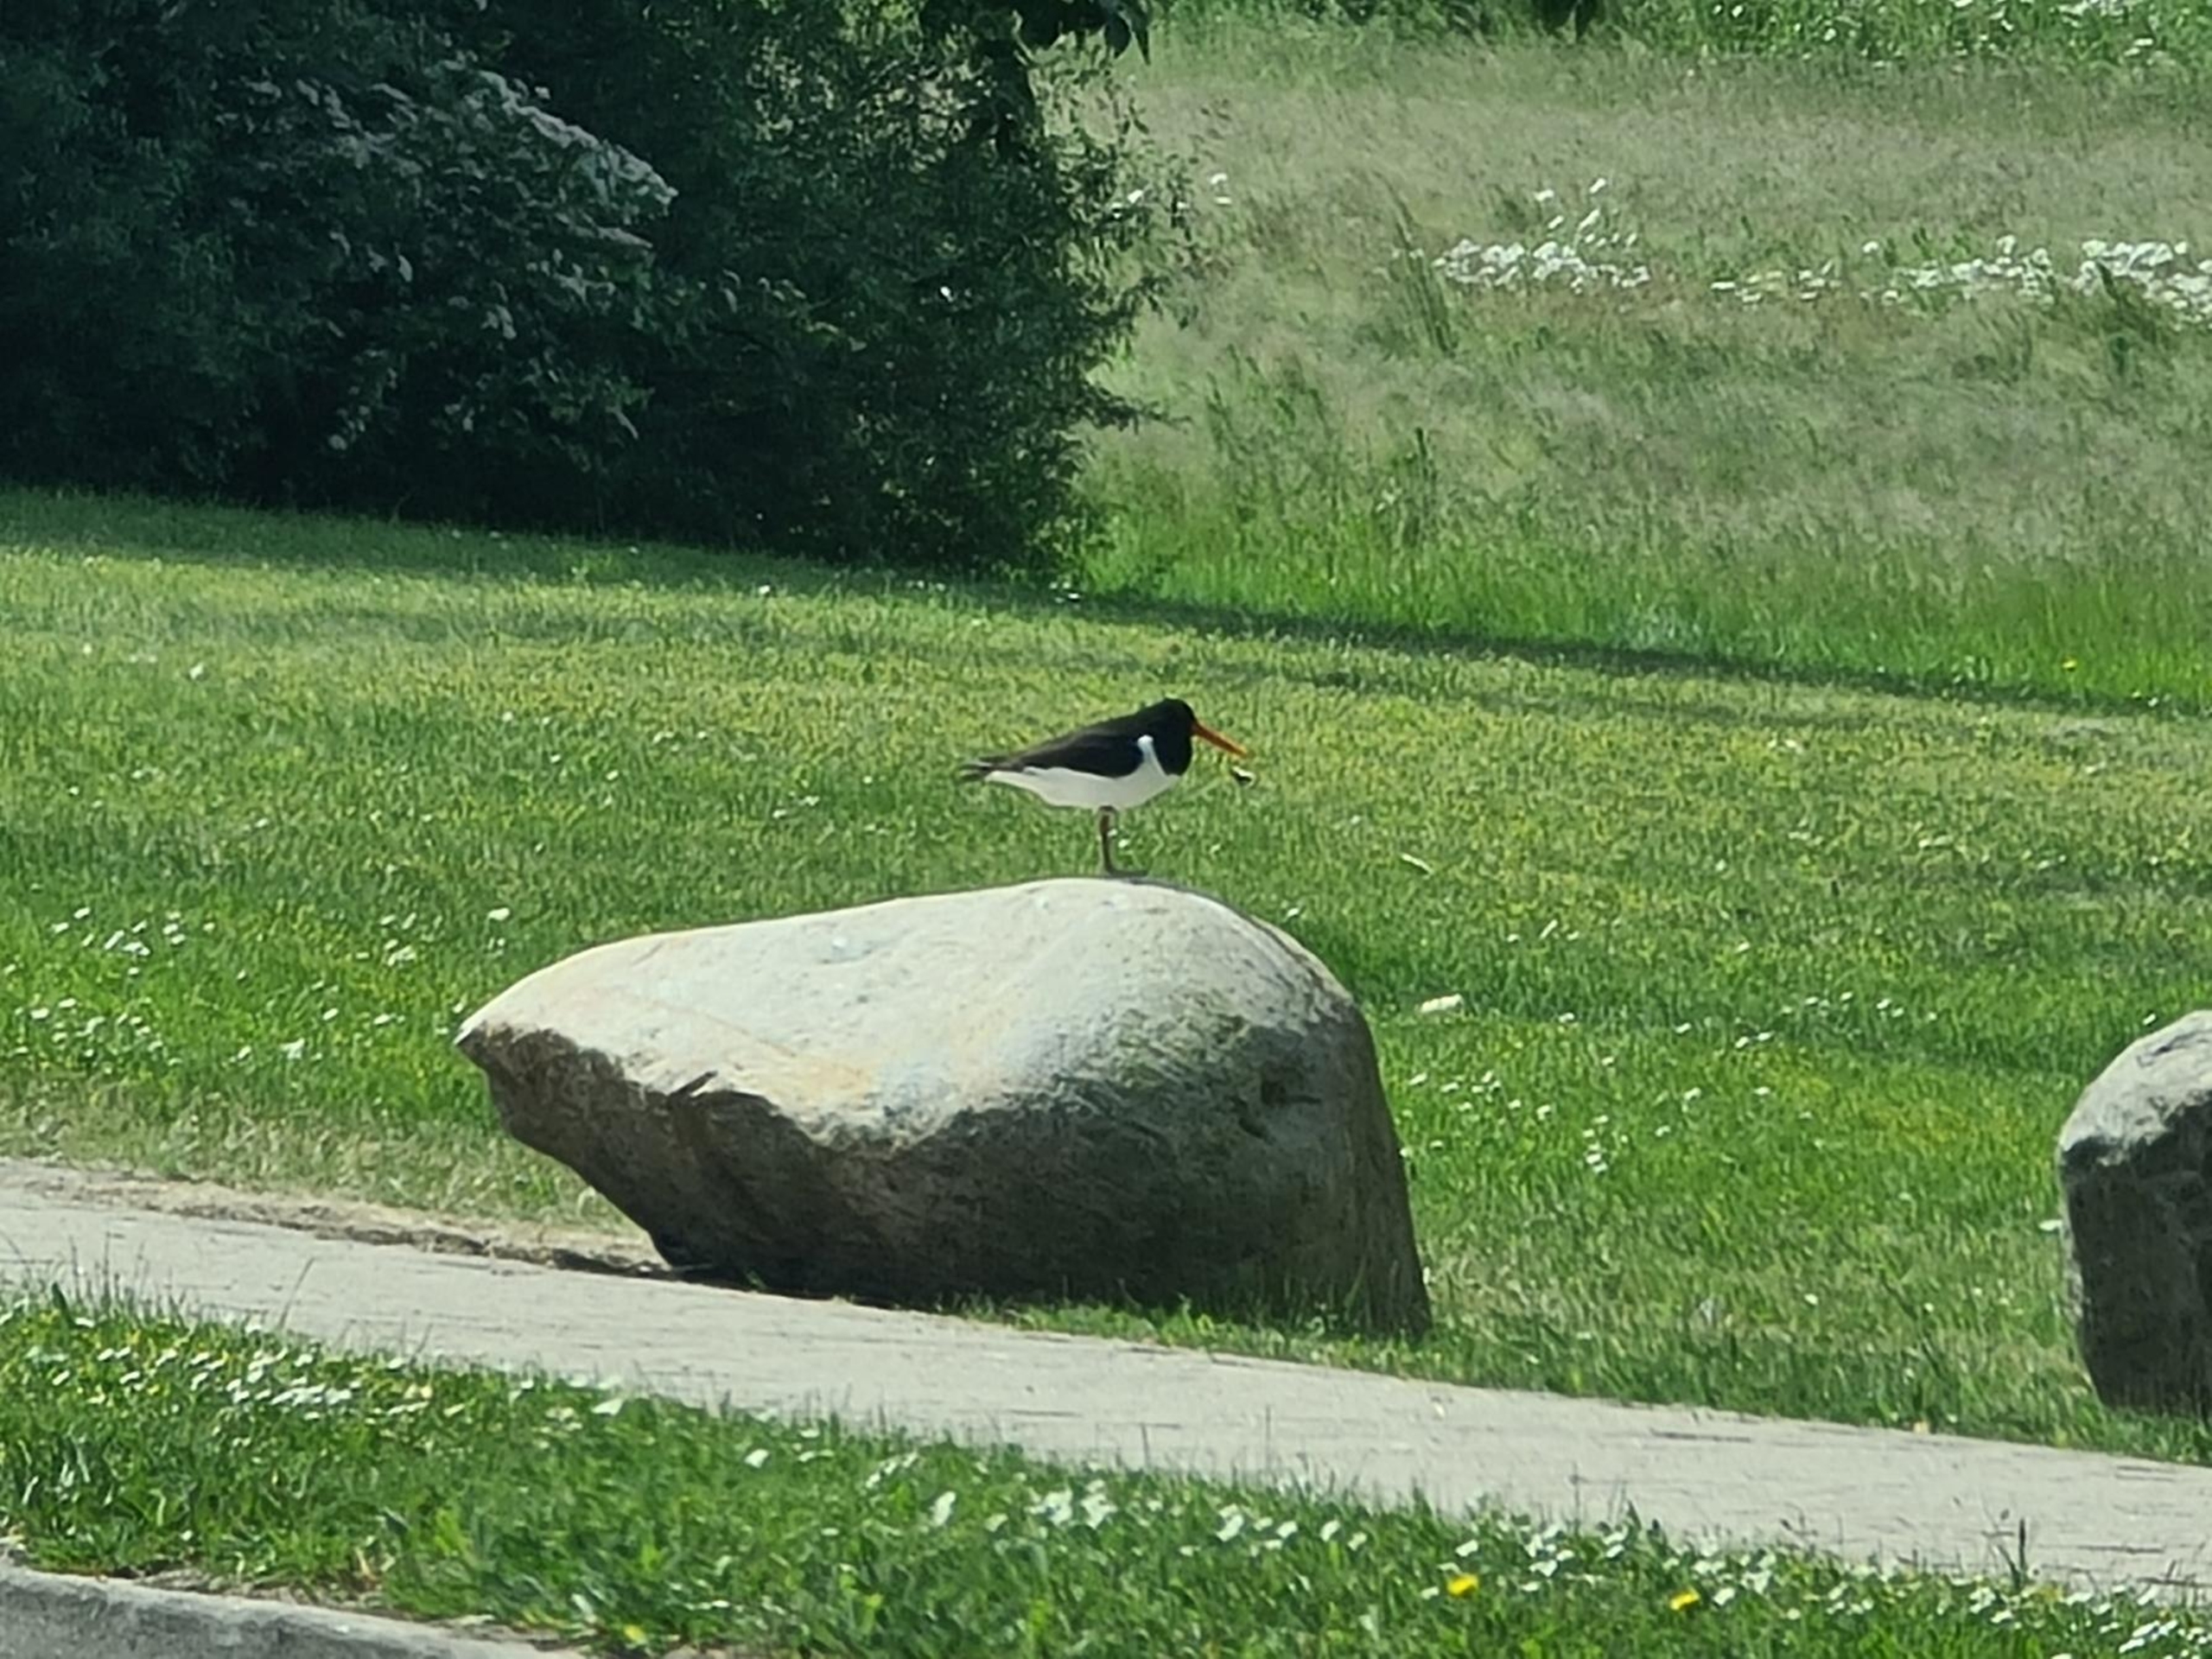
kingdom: Animalia
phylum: Chordata
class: Aves
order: Charadriiformes
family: Haematopodidae
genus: Haematopus
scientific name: Haematopus ostralegus
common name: Strandskade
